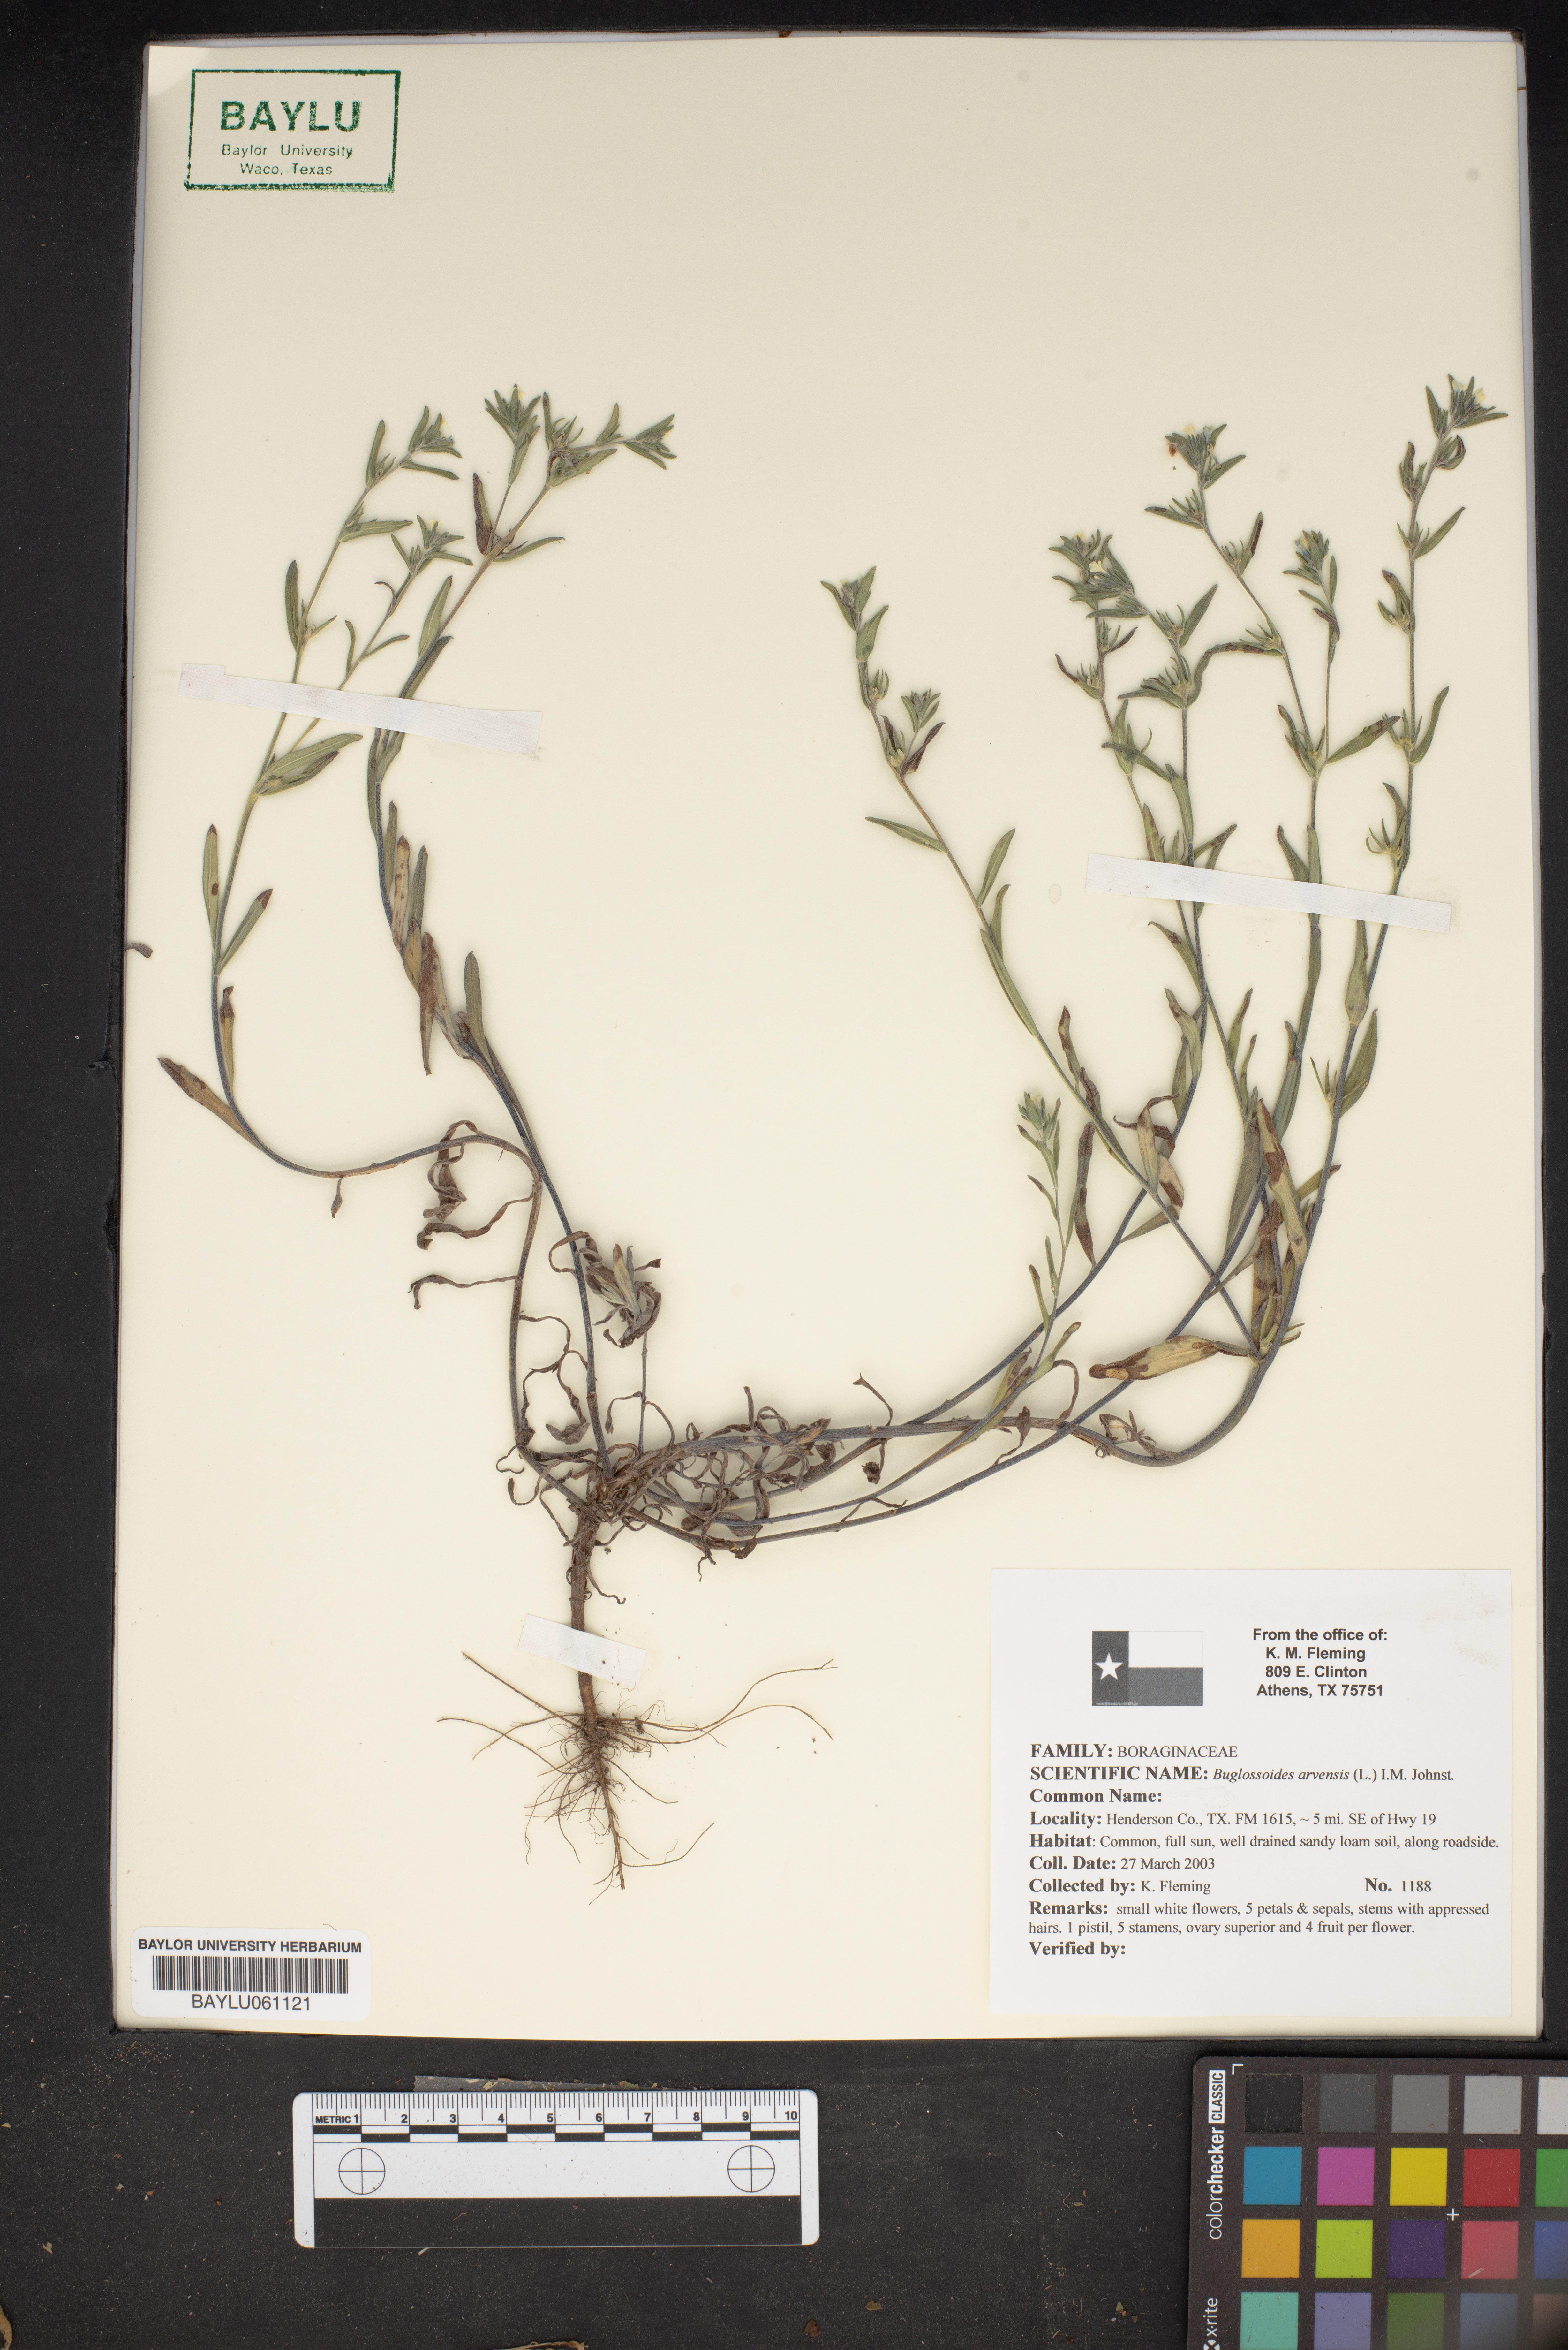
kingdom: Plantae
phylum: Tracheophyta
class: Magnoliopsida
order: Boraginales
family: Boraginaceae
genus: Buglossoides
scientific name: Buglossoides arvensis
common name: Corn gromwell
